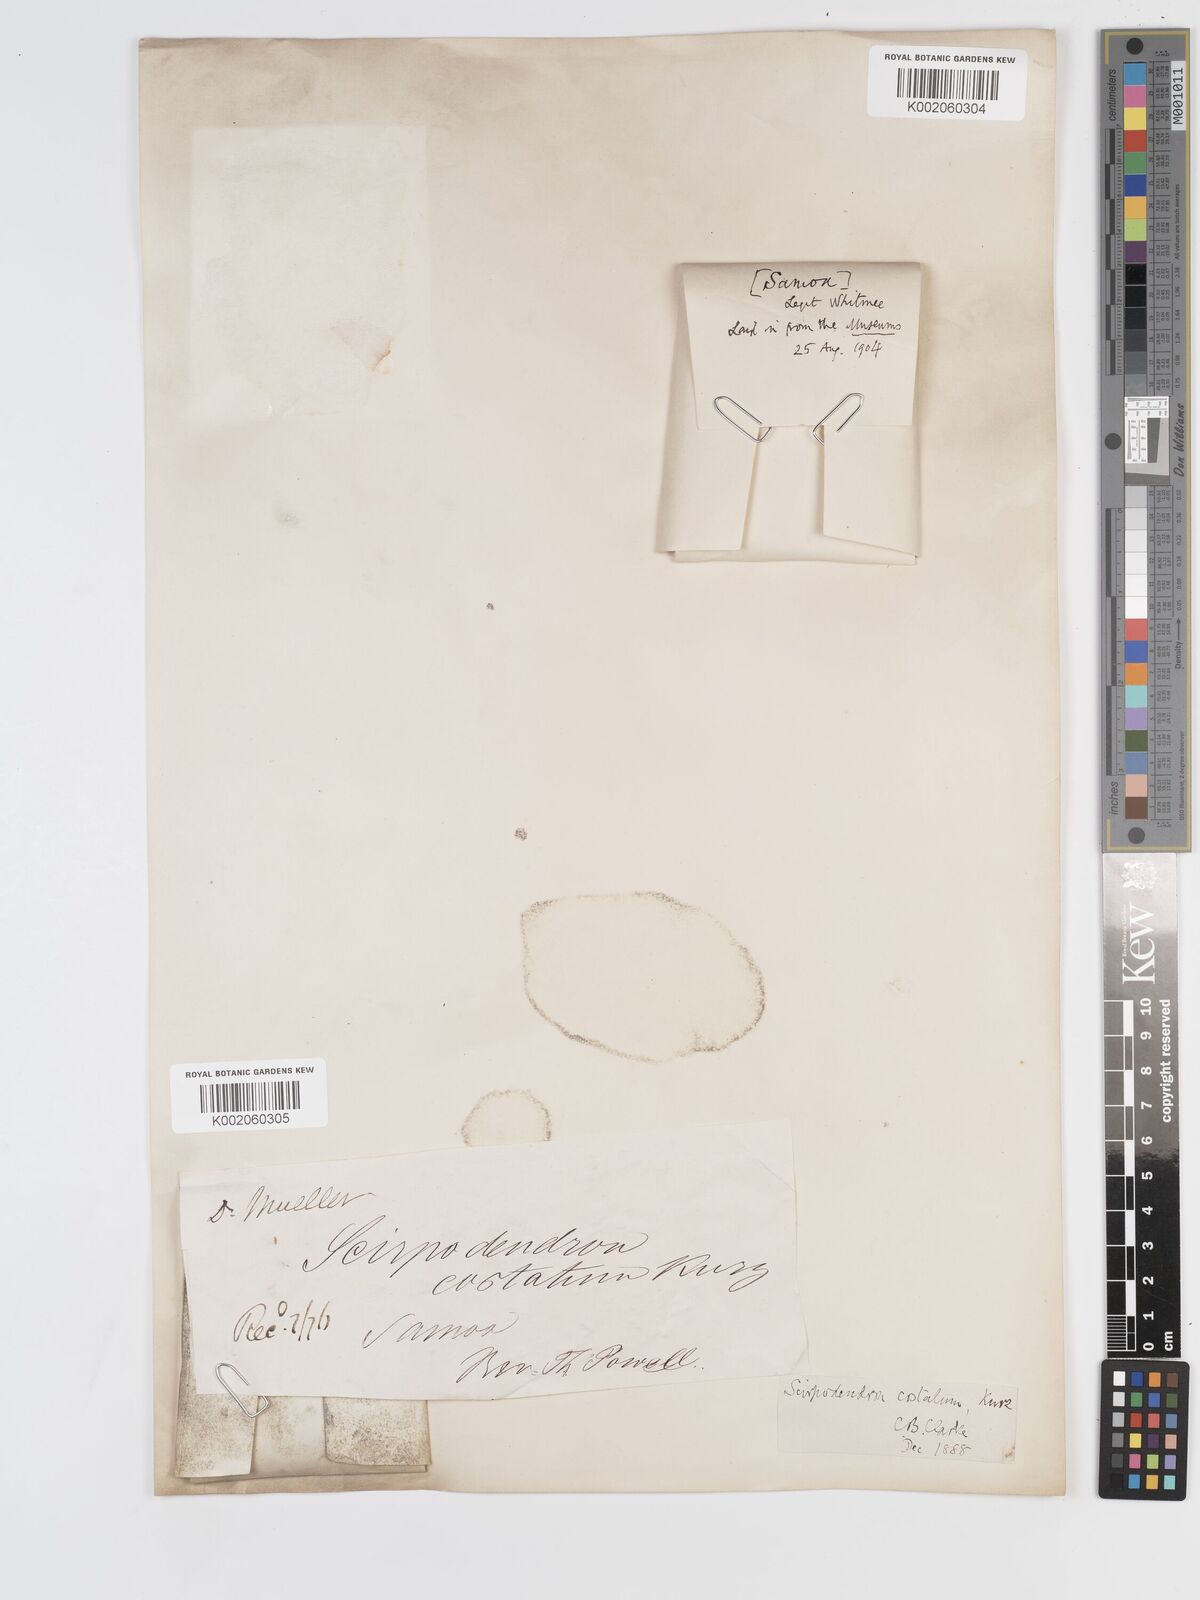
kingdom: Plantae
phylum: Tracheophyta
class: Liliopsida
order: Poales
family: Cyperaceae
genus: Scirpodendron
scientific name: Scirpodendron ghaeri
